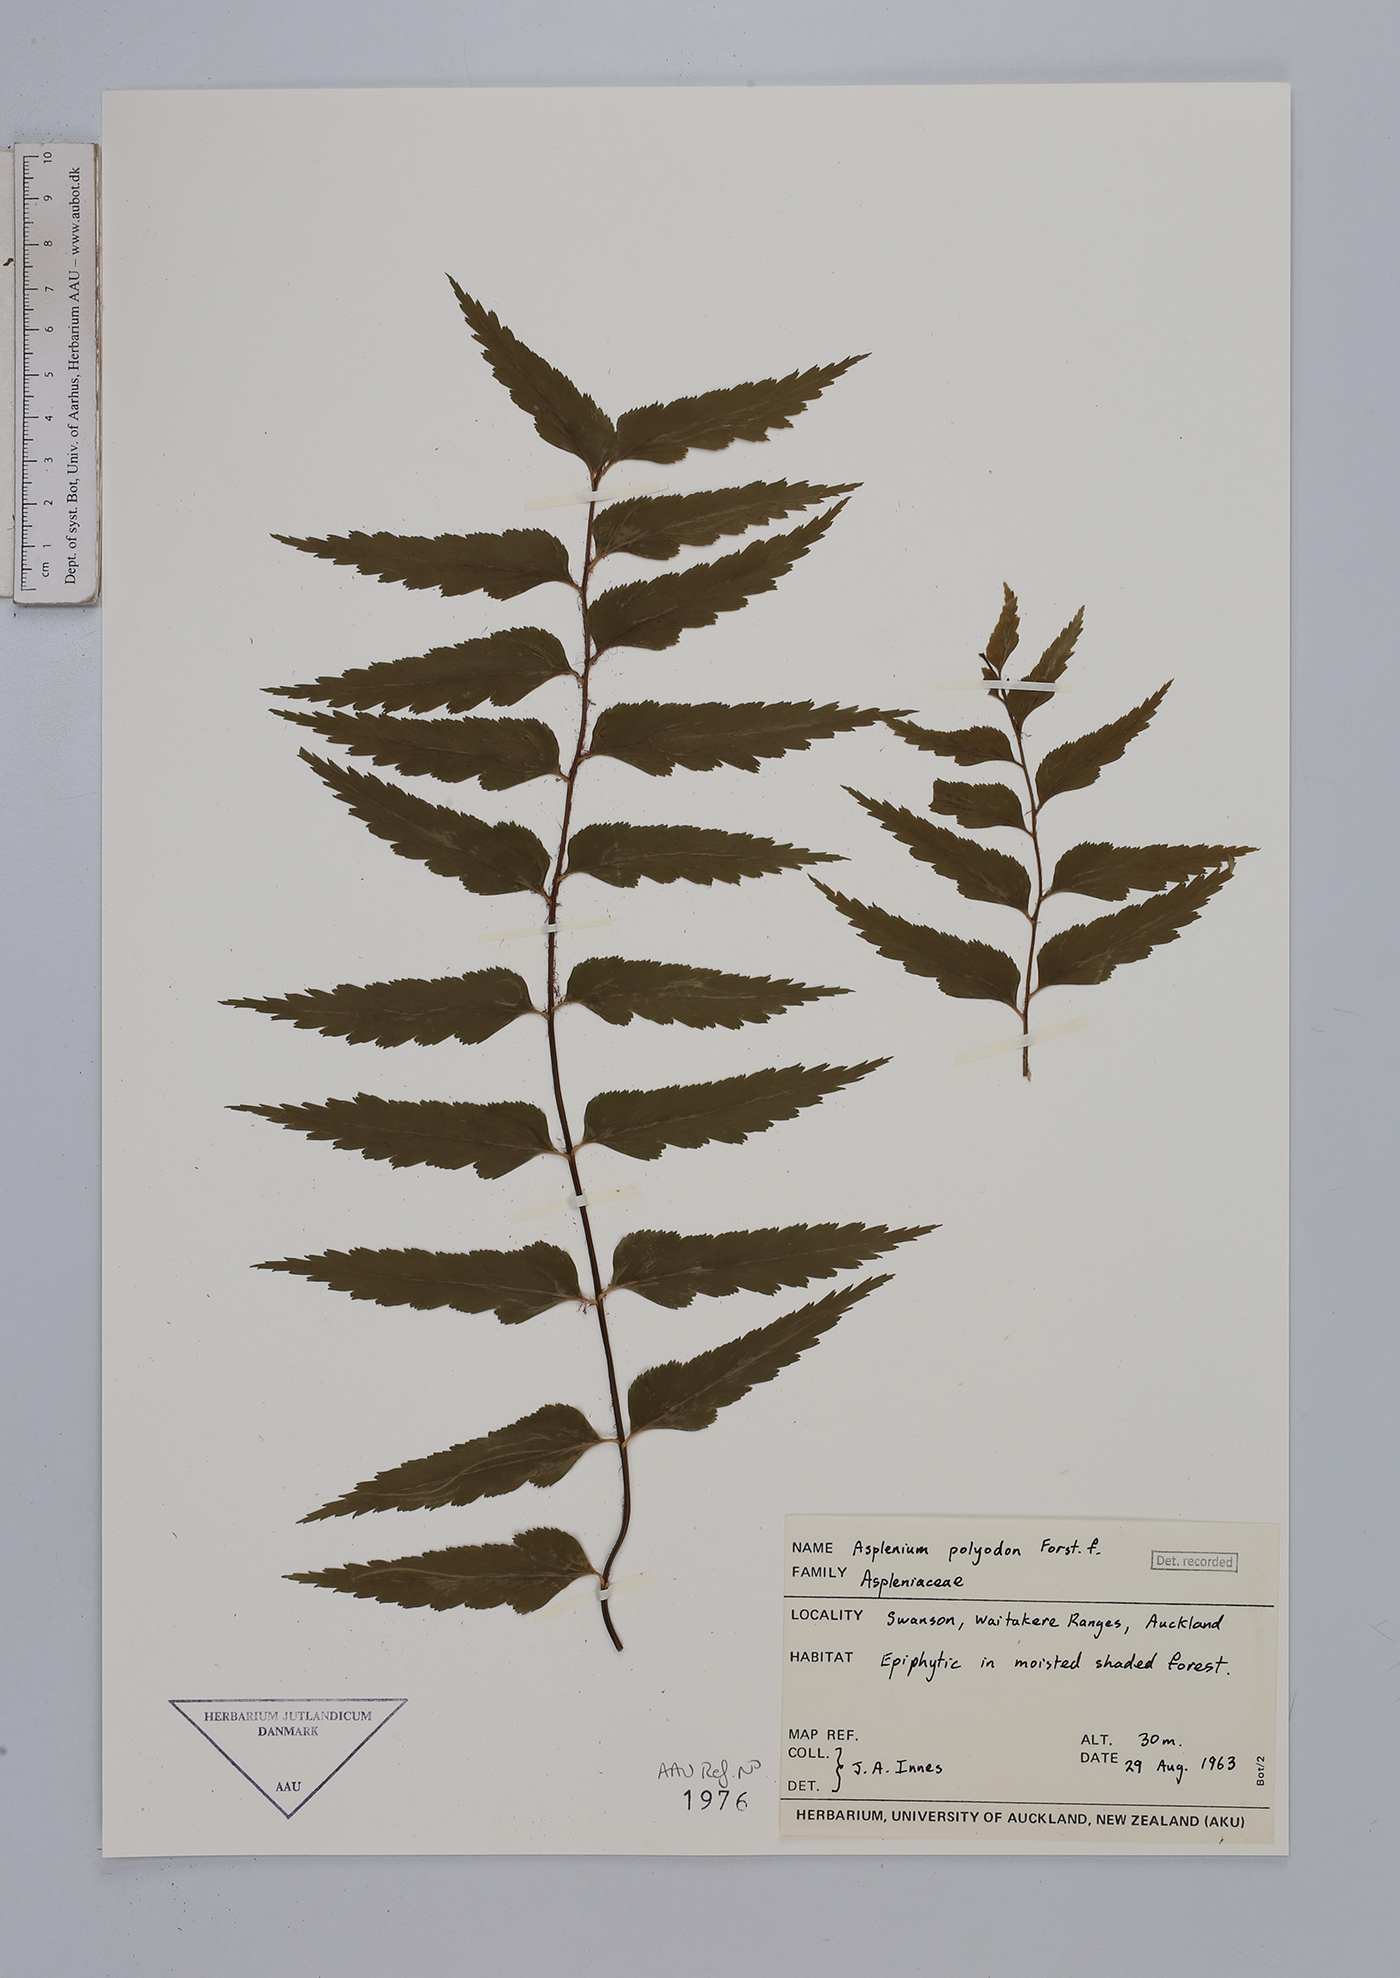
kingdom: Plantae
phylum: Tracheophyta
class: Polypodiopsida
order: Polypodiales
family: Aspleniaceae
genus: Asplenium
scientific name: Asplenium polyodon
